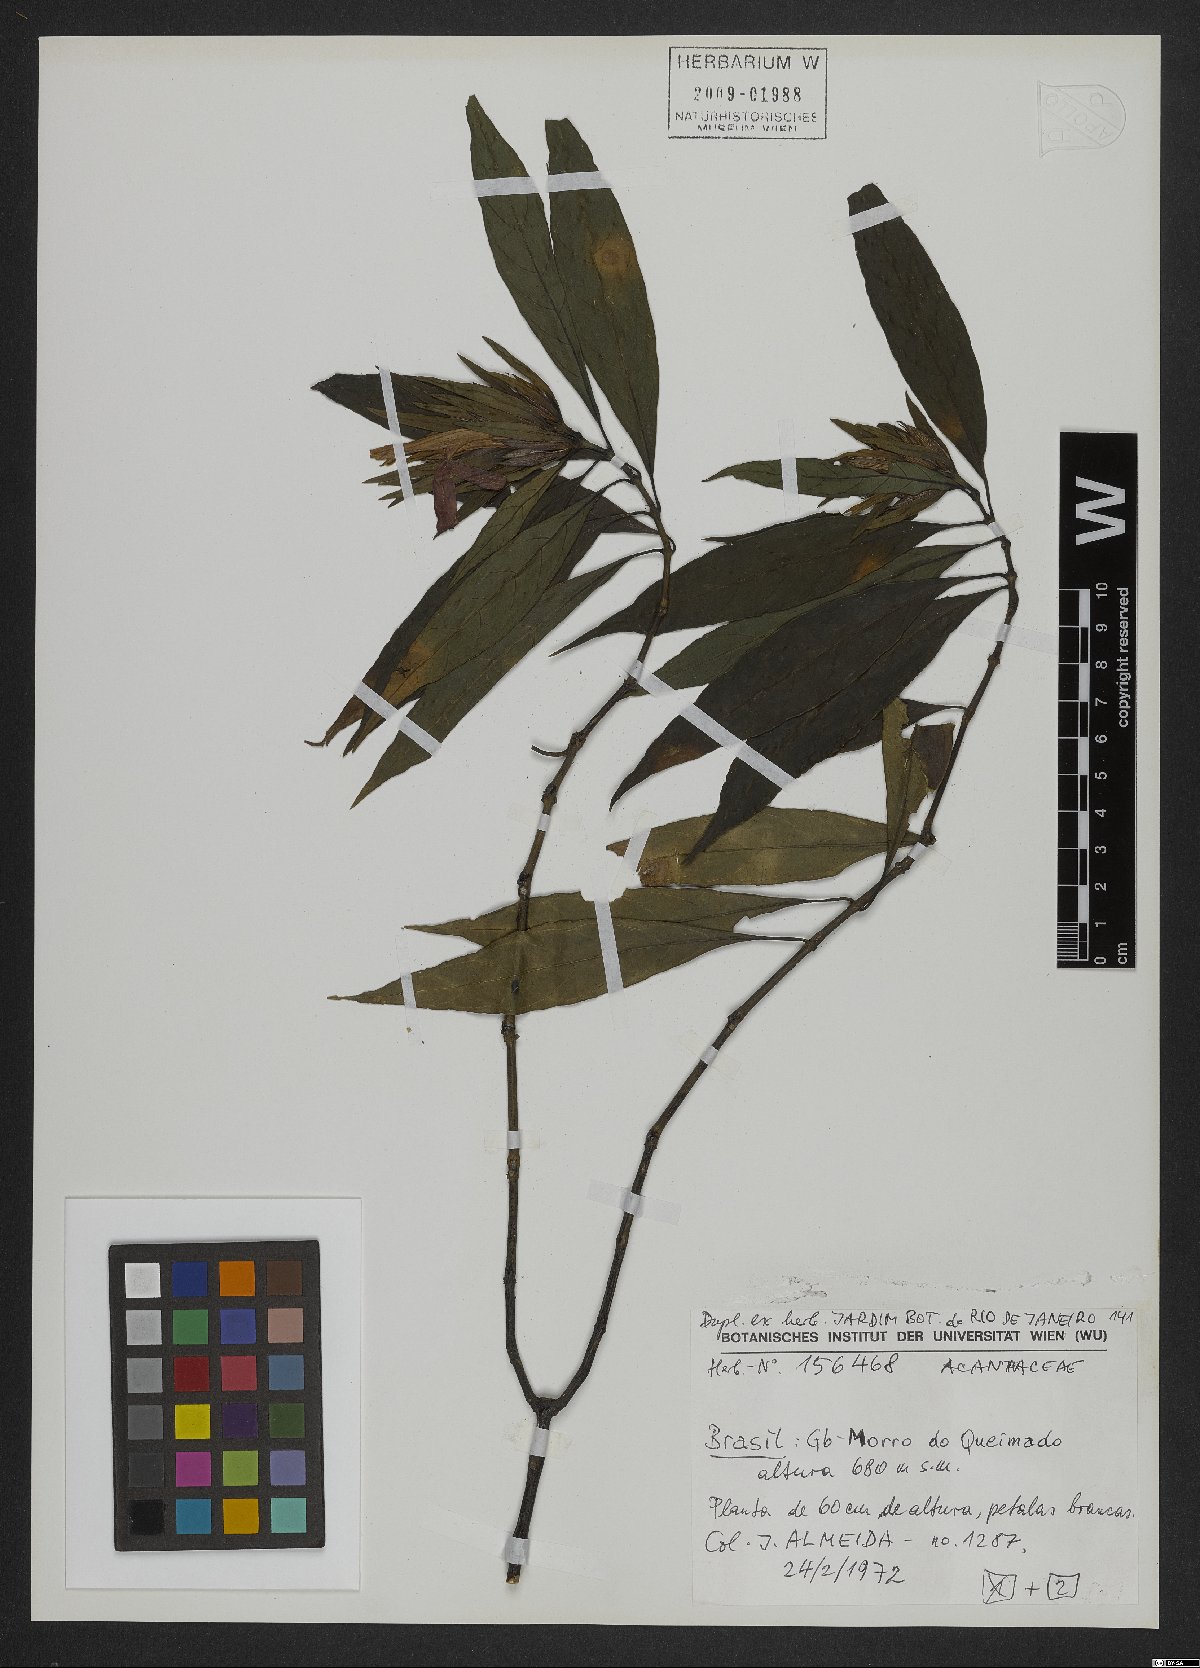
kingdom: Plantae
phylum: Tracheophyta
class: Magnoliopsida
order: Lamiales
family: Acanthaceae
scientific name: Acanthaceae
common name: Acanthaceae
